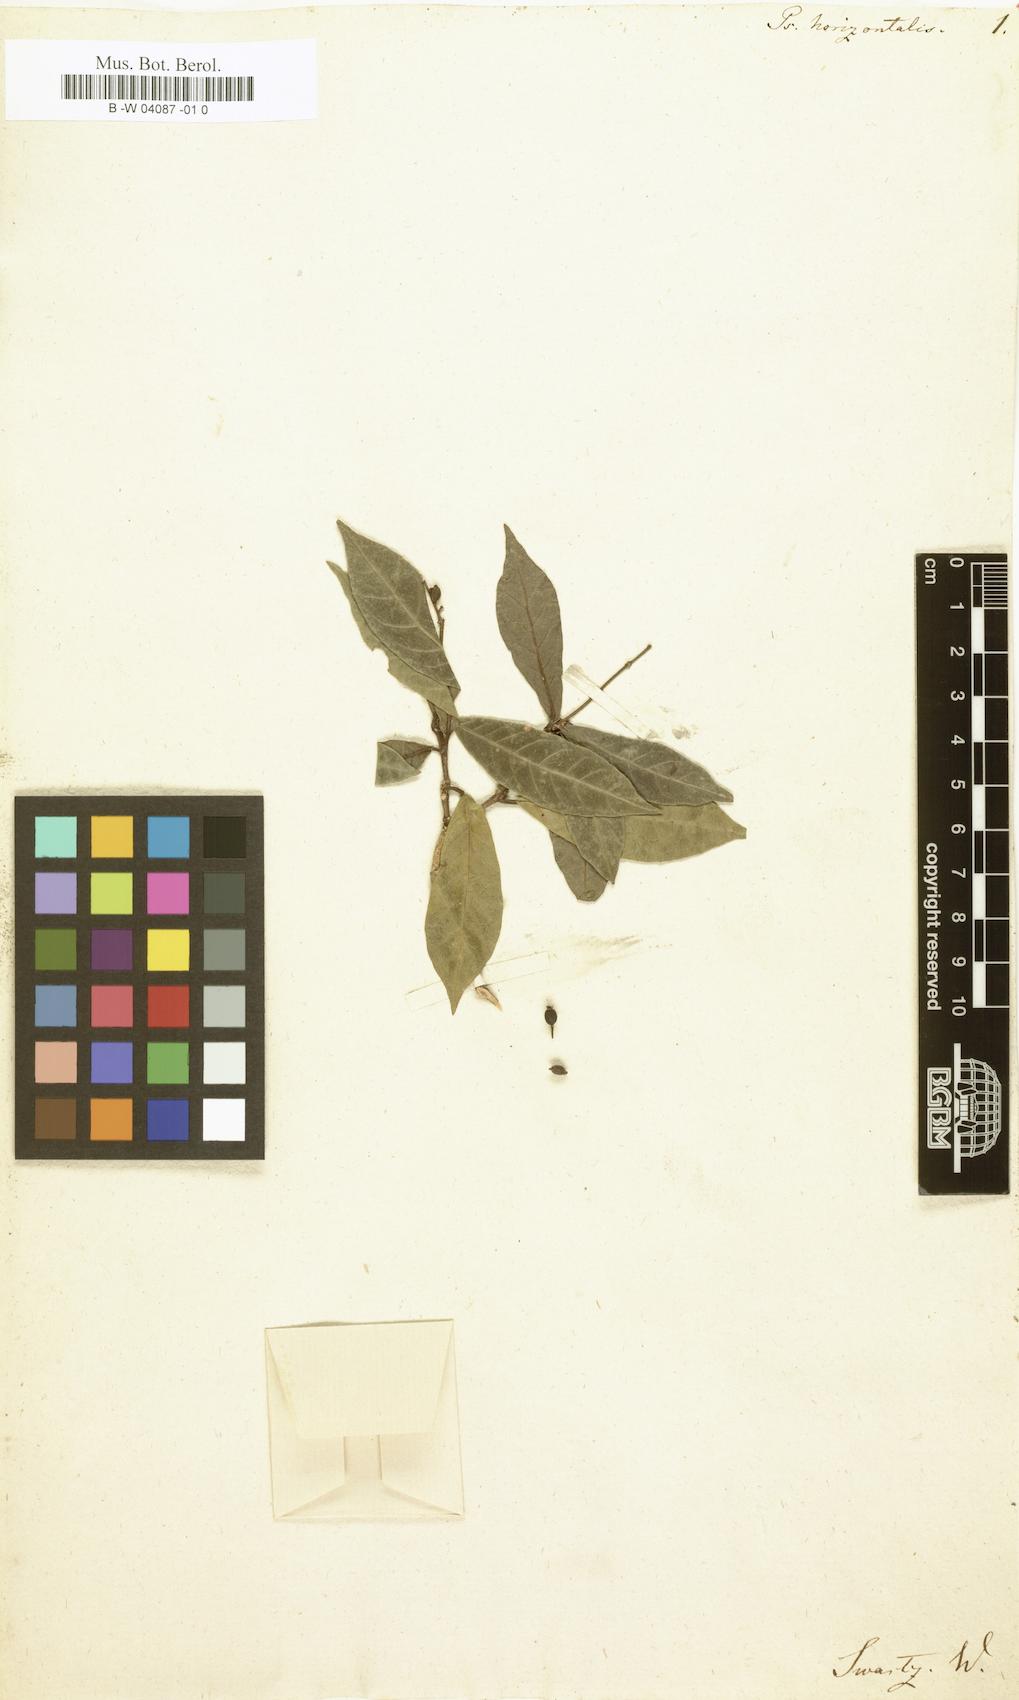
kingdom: Plantae
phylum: Tracheophyta
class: Magnoliopsida
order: Gentianales
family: Rubiaceae
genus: Psychotria
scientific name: Psychotria horizontalis
